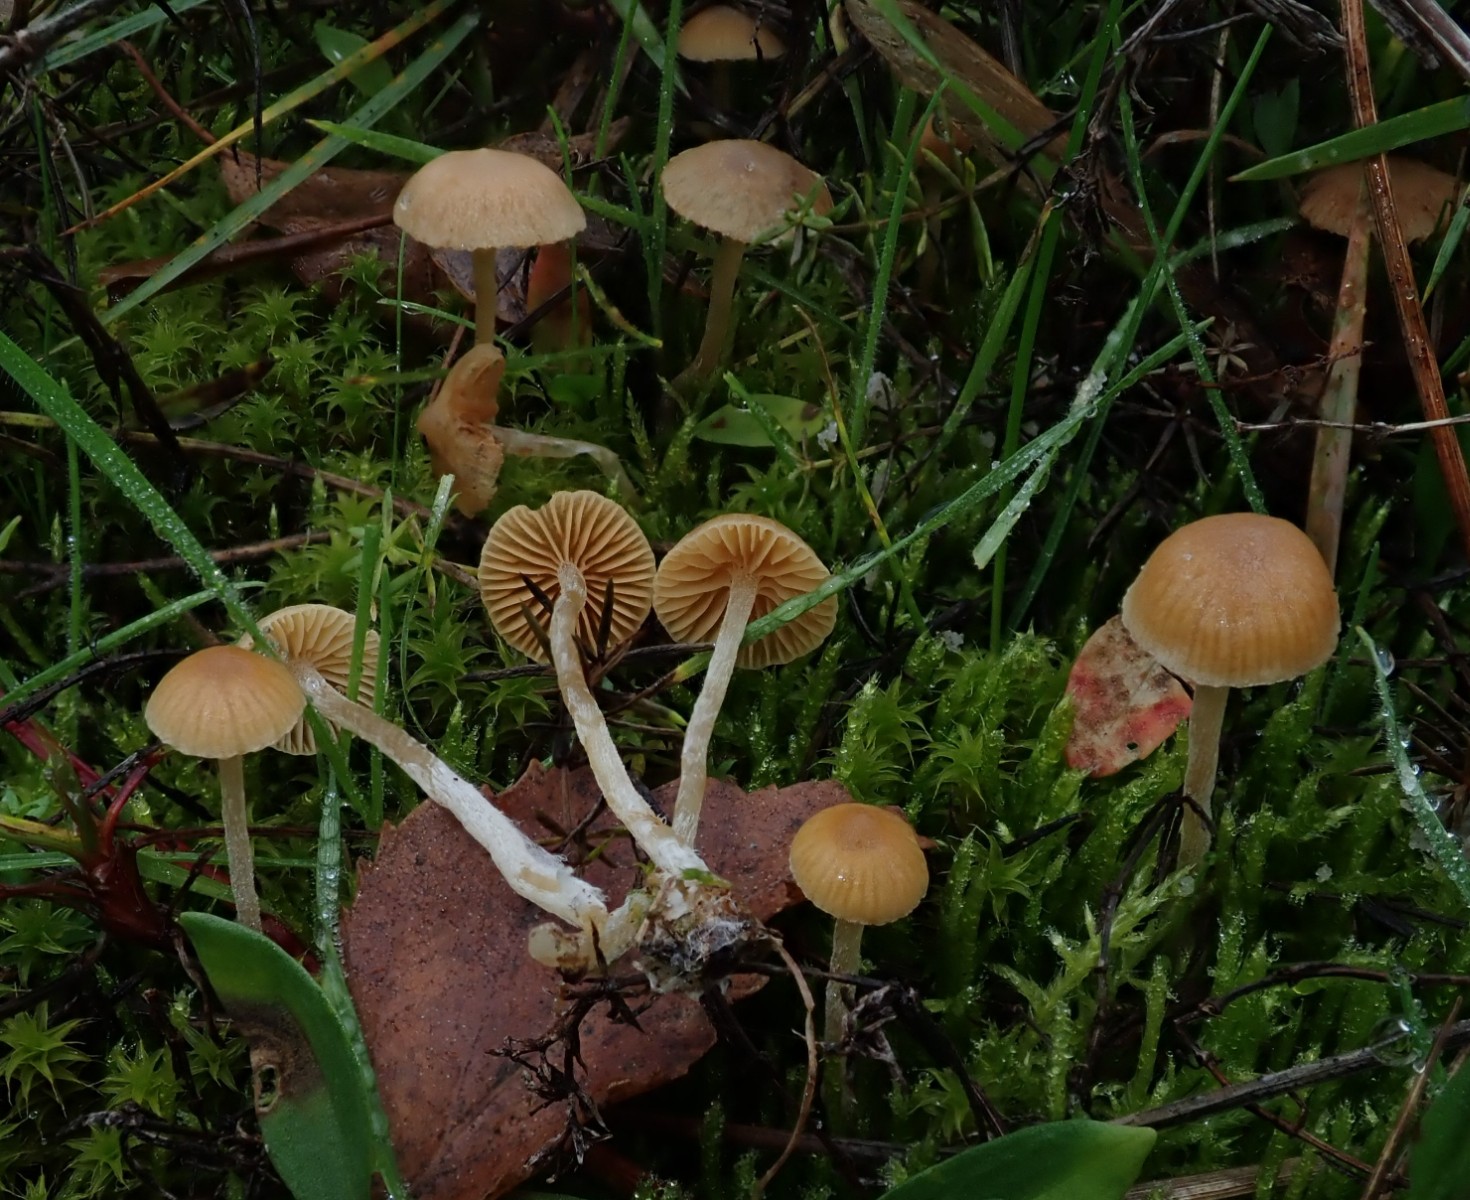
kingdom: Fungi
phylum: Basidiomycota
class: Agaricomycetes
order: Agaricales
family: Hymenogastraceae
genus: Galerina
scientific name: Galerina
